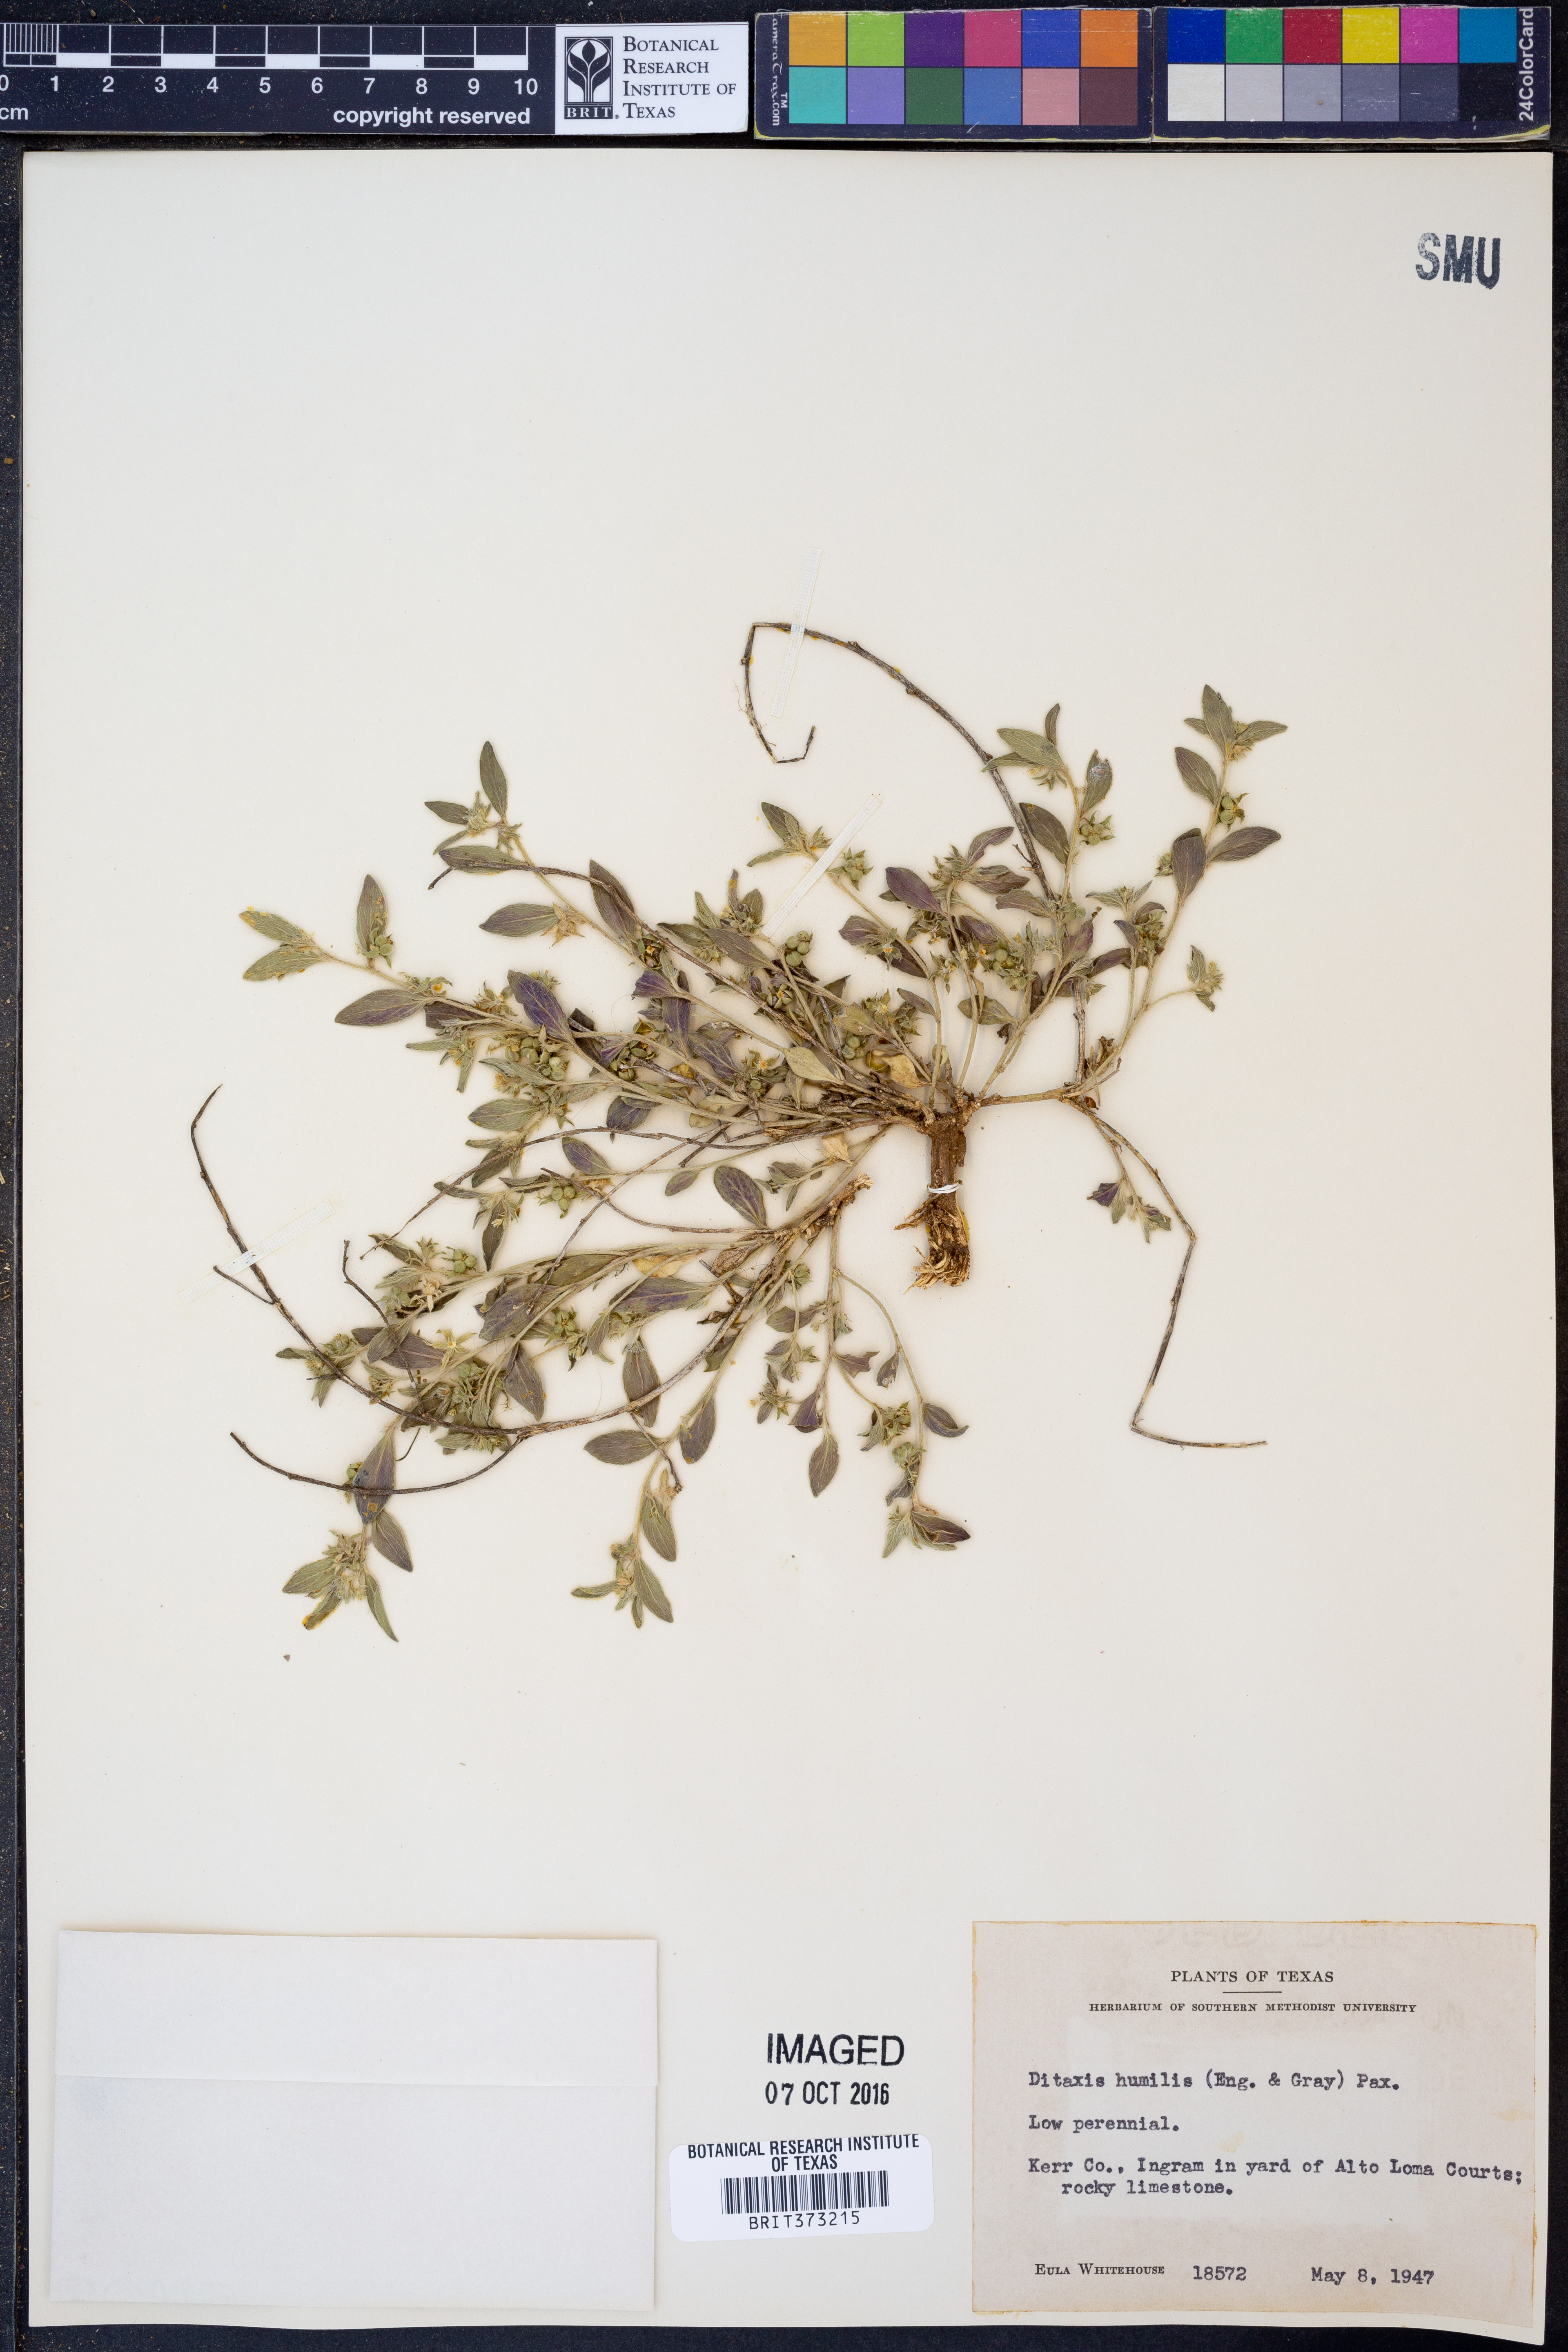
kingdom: Plantae
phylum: Tracheophyta
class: Magnoliopsida
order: Malpighiales
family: Euphorbiaceae
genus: Ditaxis
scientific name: Ditaxis humilis
